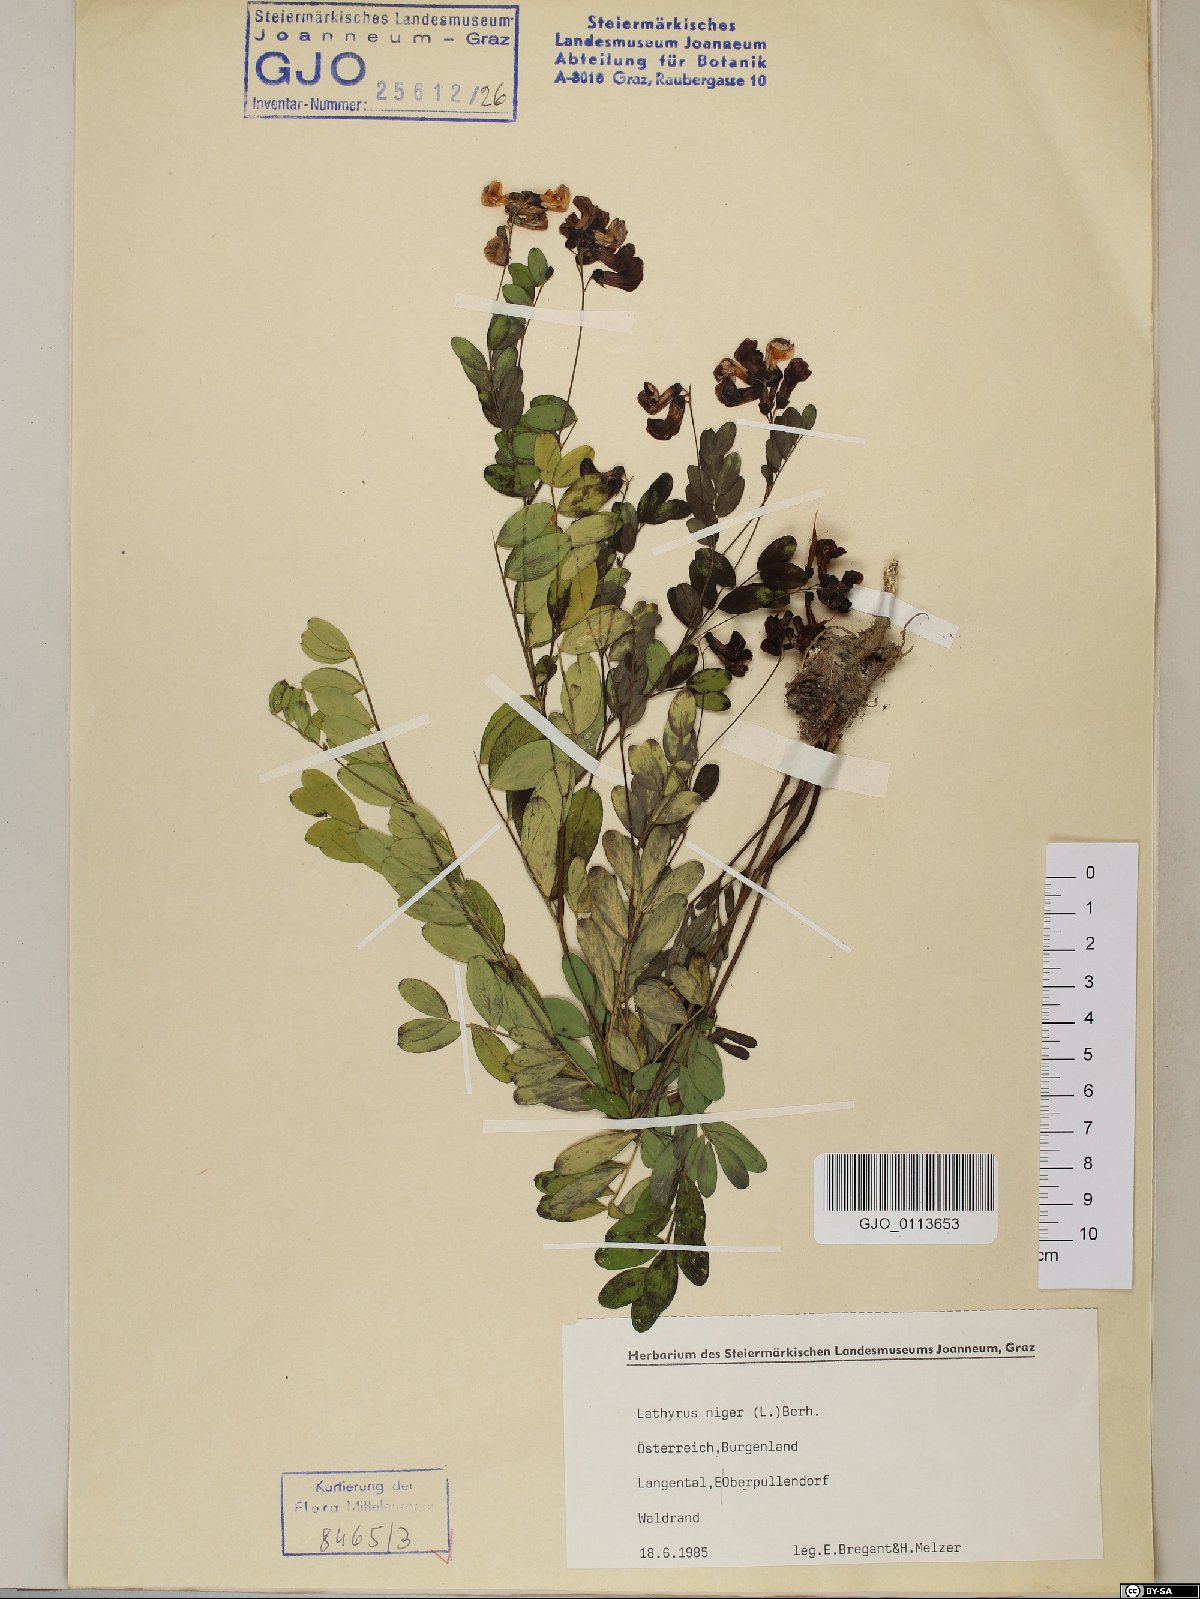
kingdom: Plantae
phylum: Tracheophyta
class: Magnoliopsida
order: Fabales
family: Fabaceae
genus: Lathyrus
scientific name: Lathyrus niger
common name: Black pea
